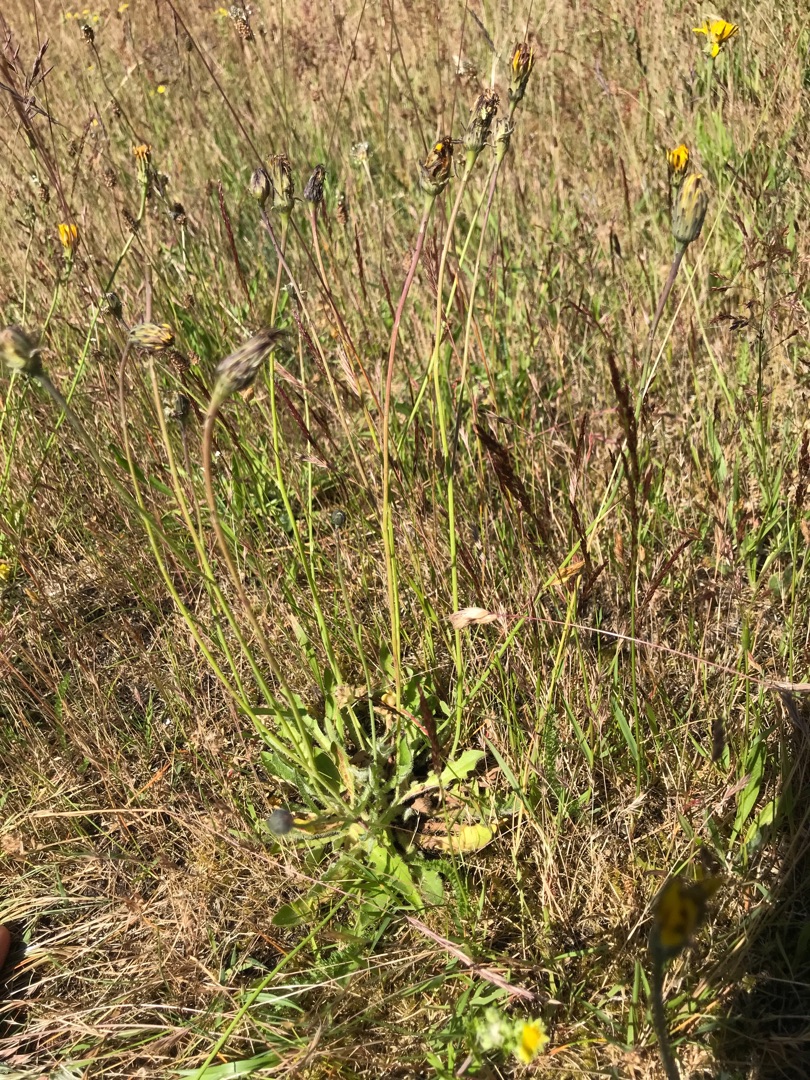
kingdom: Plantae
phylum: Tracheophyta
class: Magnoliopsida
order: Asterales
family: Asteraceae
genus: Hypochaeris
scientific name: Hypochaeris radicata
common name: Almindelig kongepen
